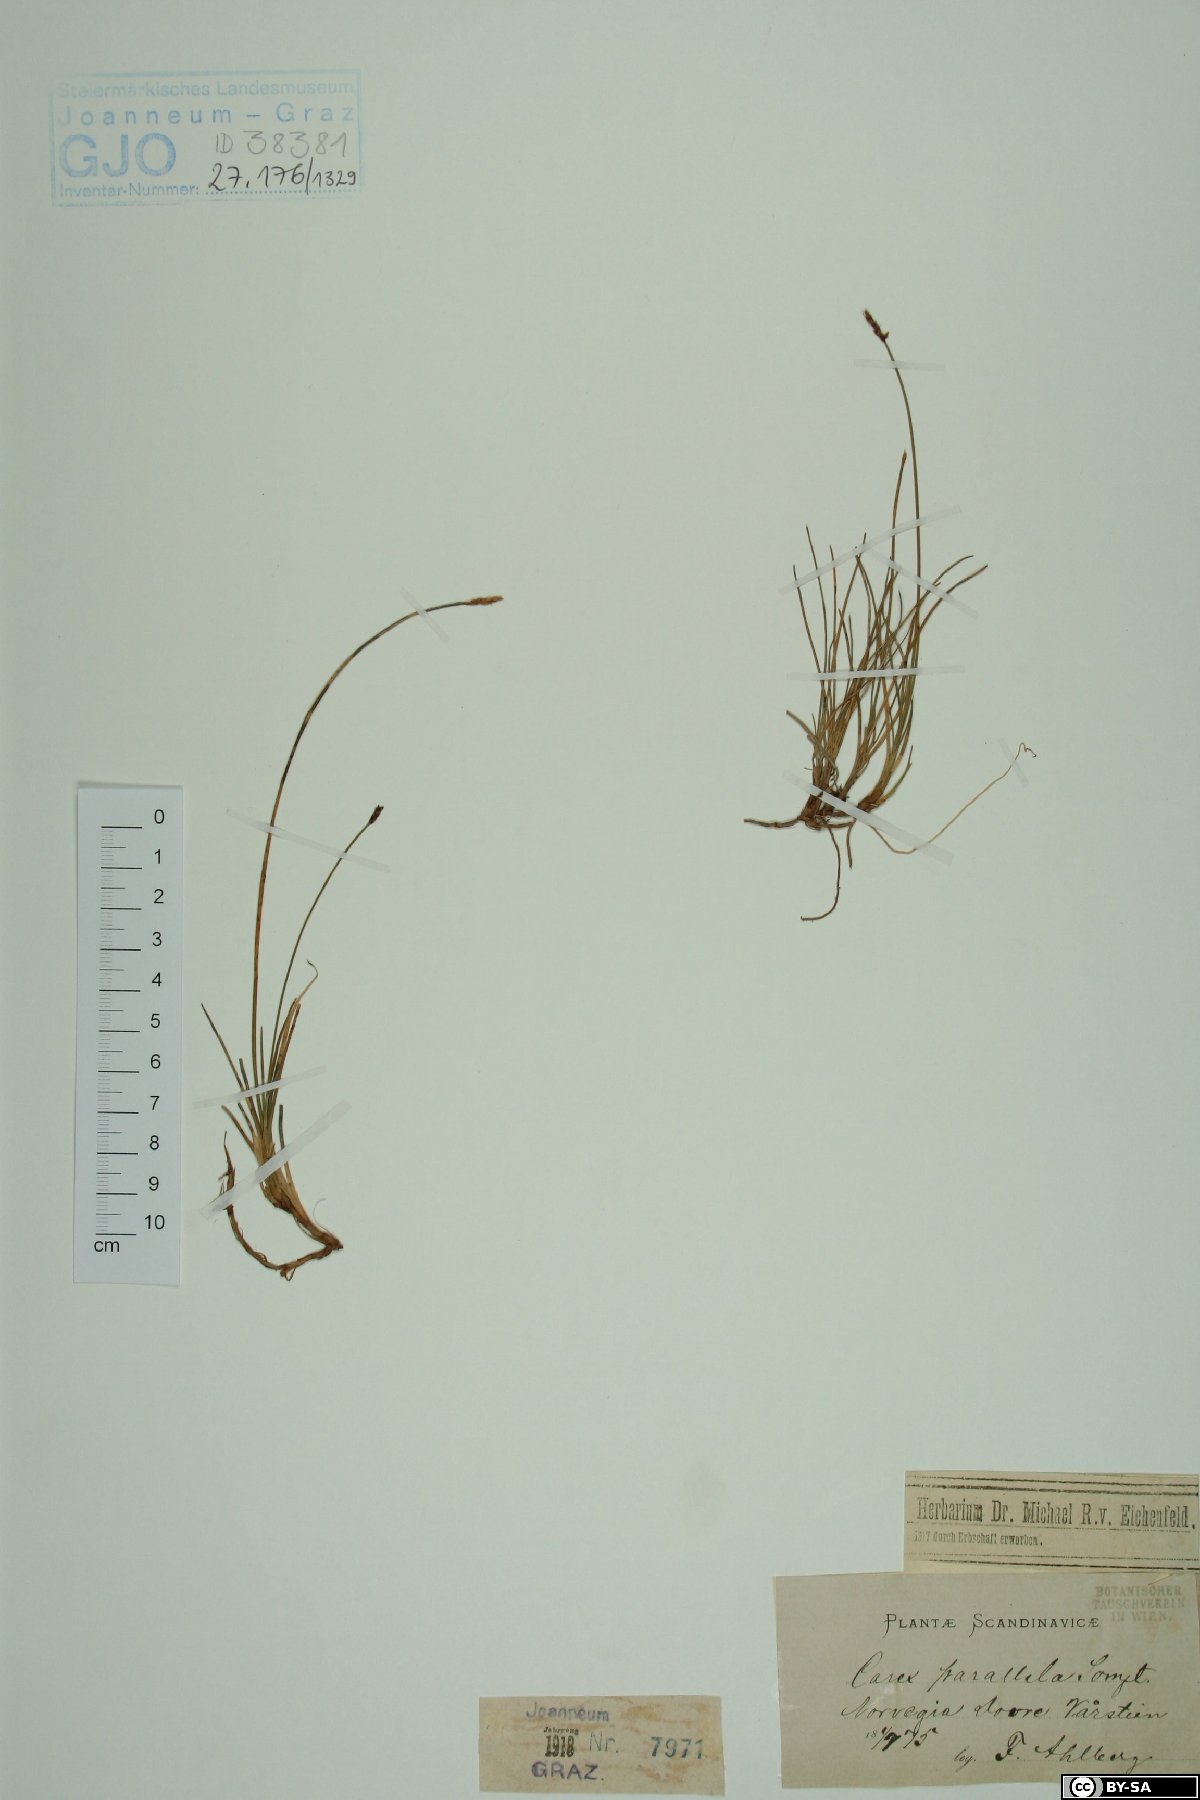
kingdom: Plantae
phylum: Tracheophyta
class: Liliopsida
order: Poales
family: Cyperaceae
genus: Carex
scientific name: Carex parallela
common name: Parallel sedge
